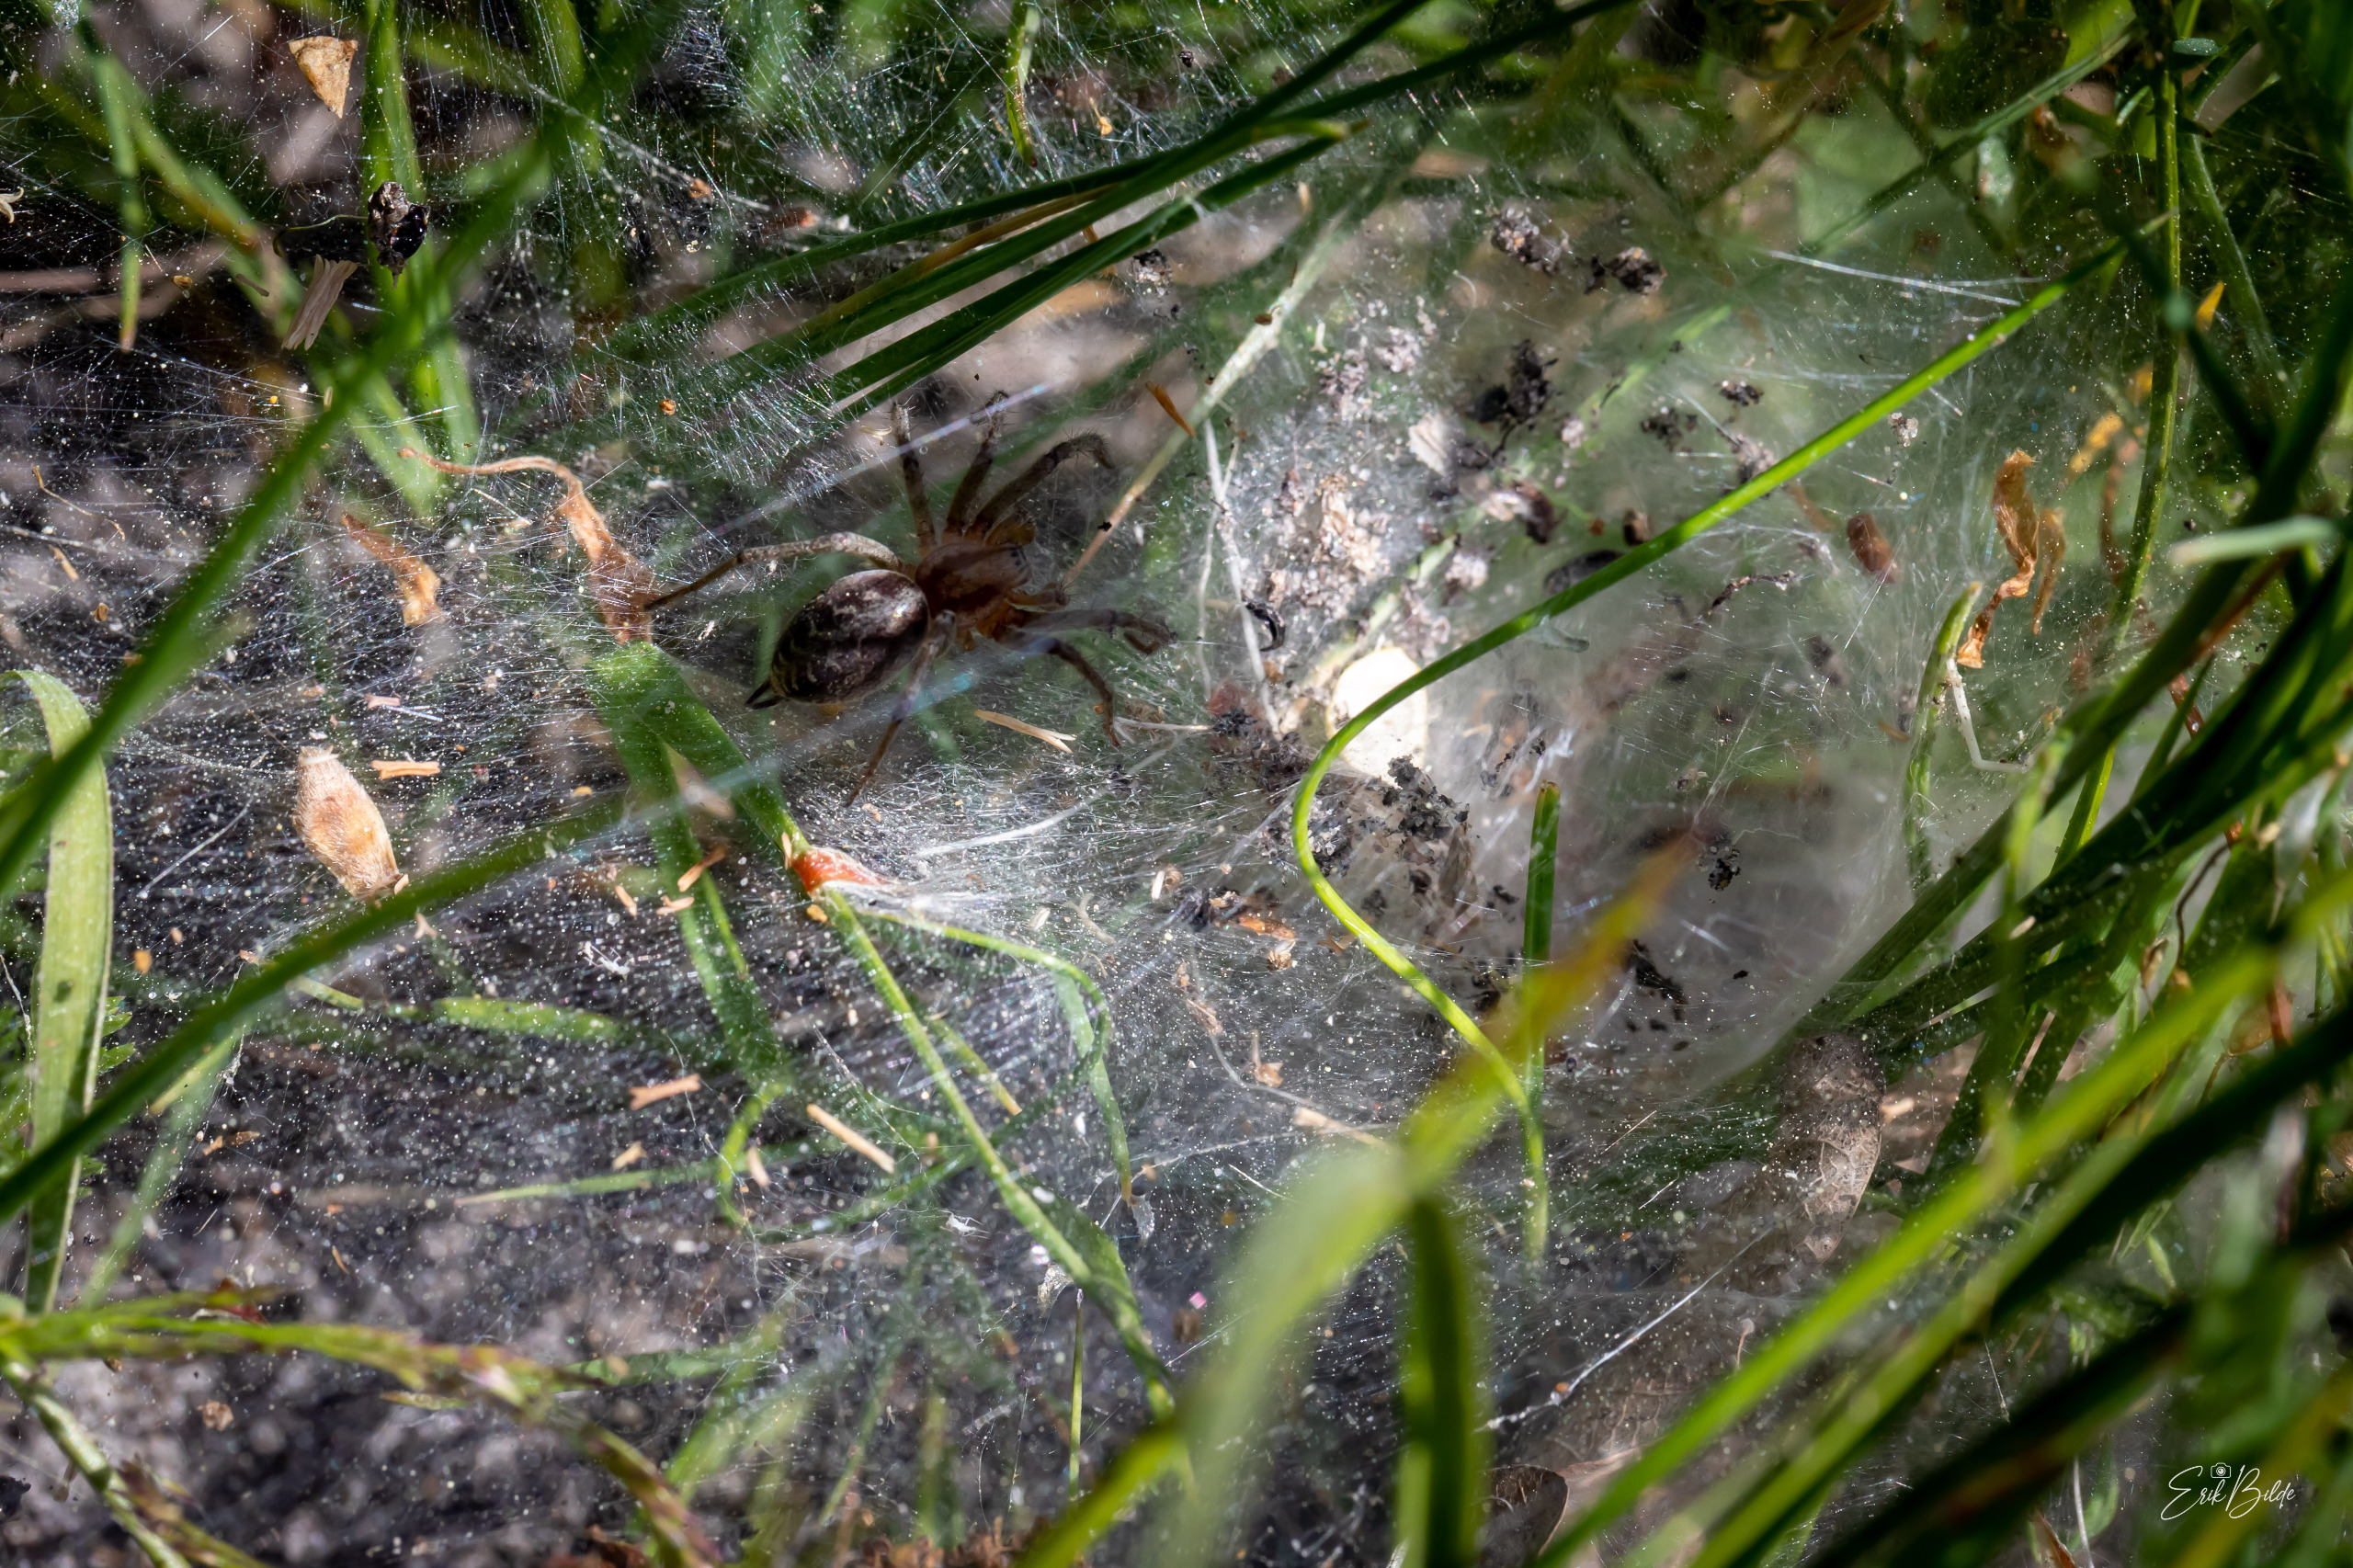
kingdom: Animalia
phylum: Arthropoda
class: Arachnida
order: Araneae
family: Agelenidae
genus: Agelena
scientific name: Agelena labyrinthica
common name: Labyrintedderkop
